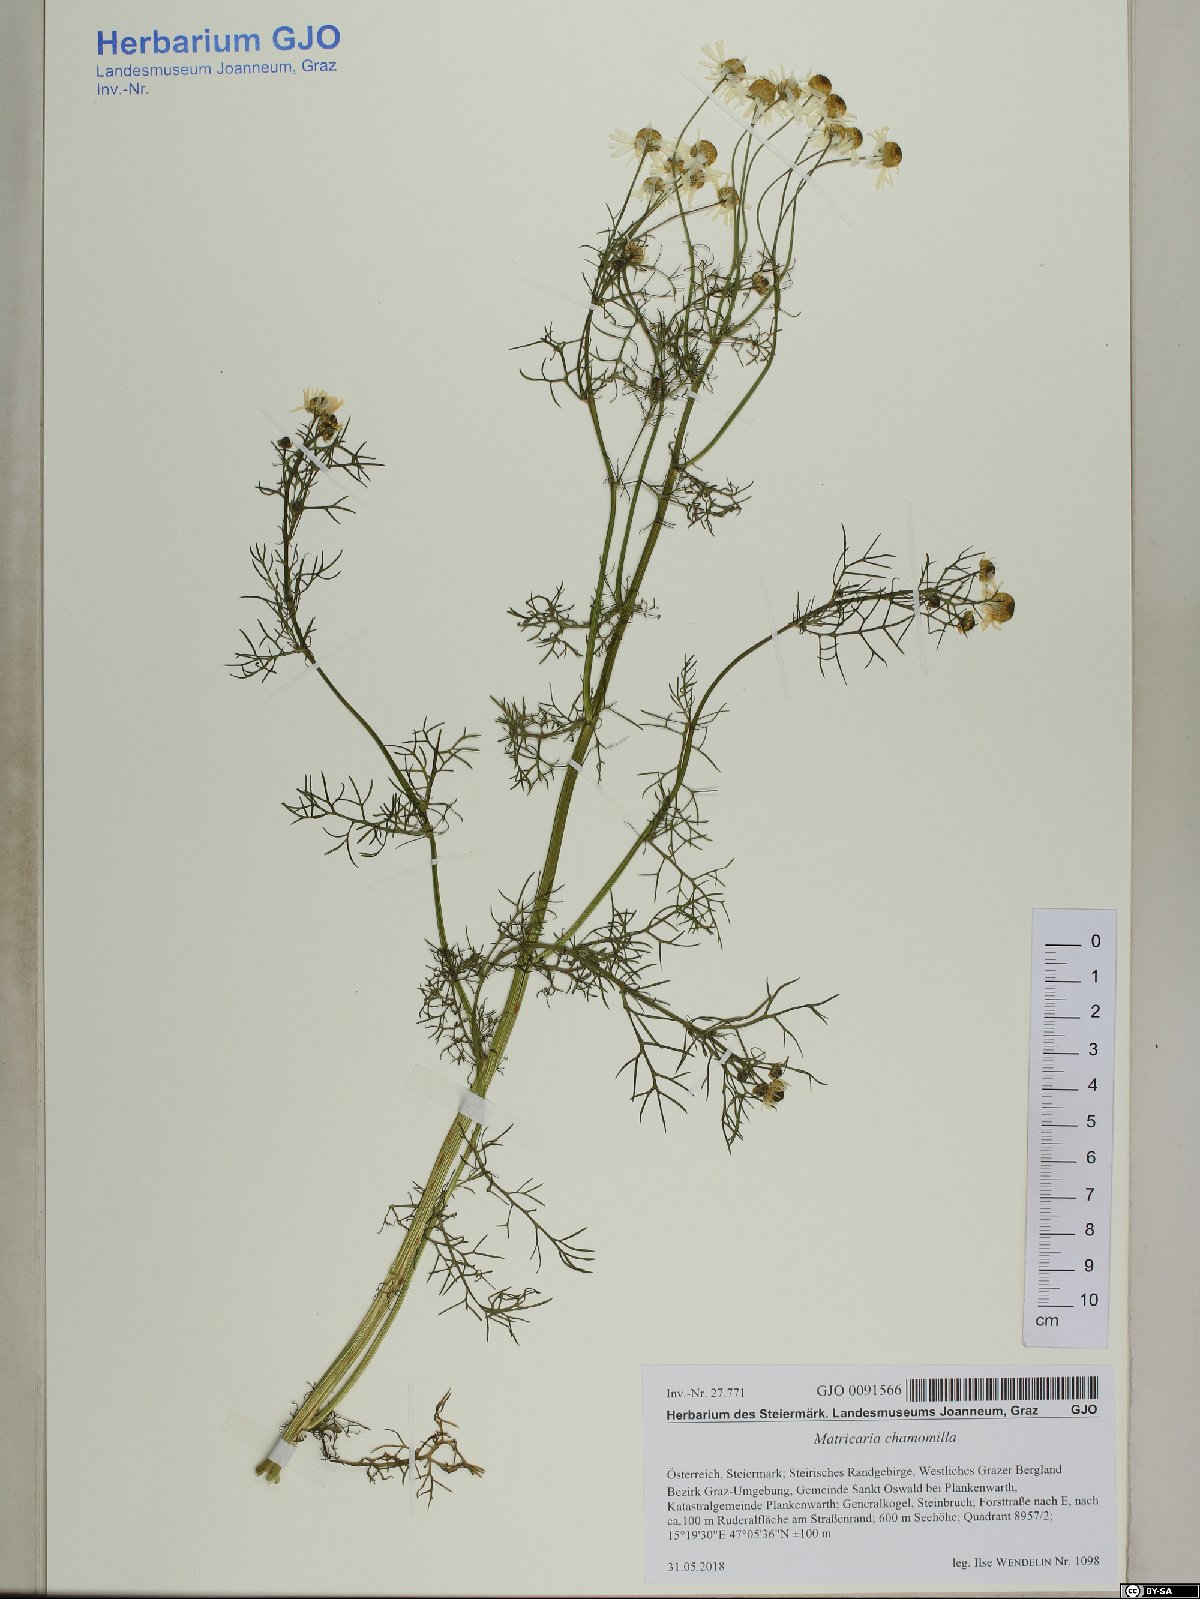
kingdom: Plantae
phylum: Tracheophyta
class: Magnoliopsida
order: Asterales
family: Asteraceae
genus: Matricaria
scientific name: Matricaria chamomilla
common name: Scented mayweed
